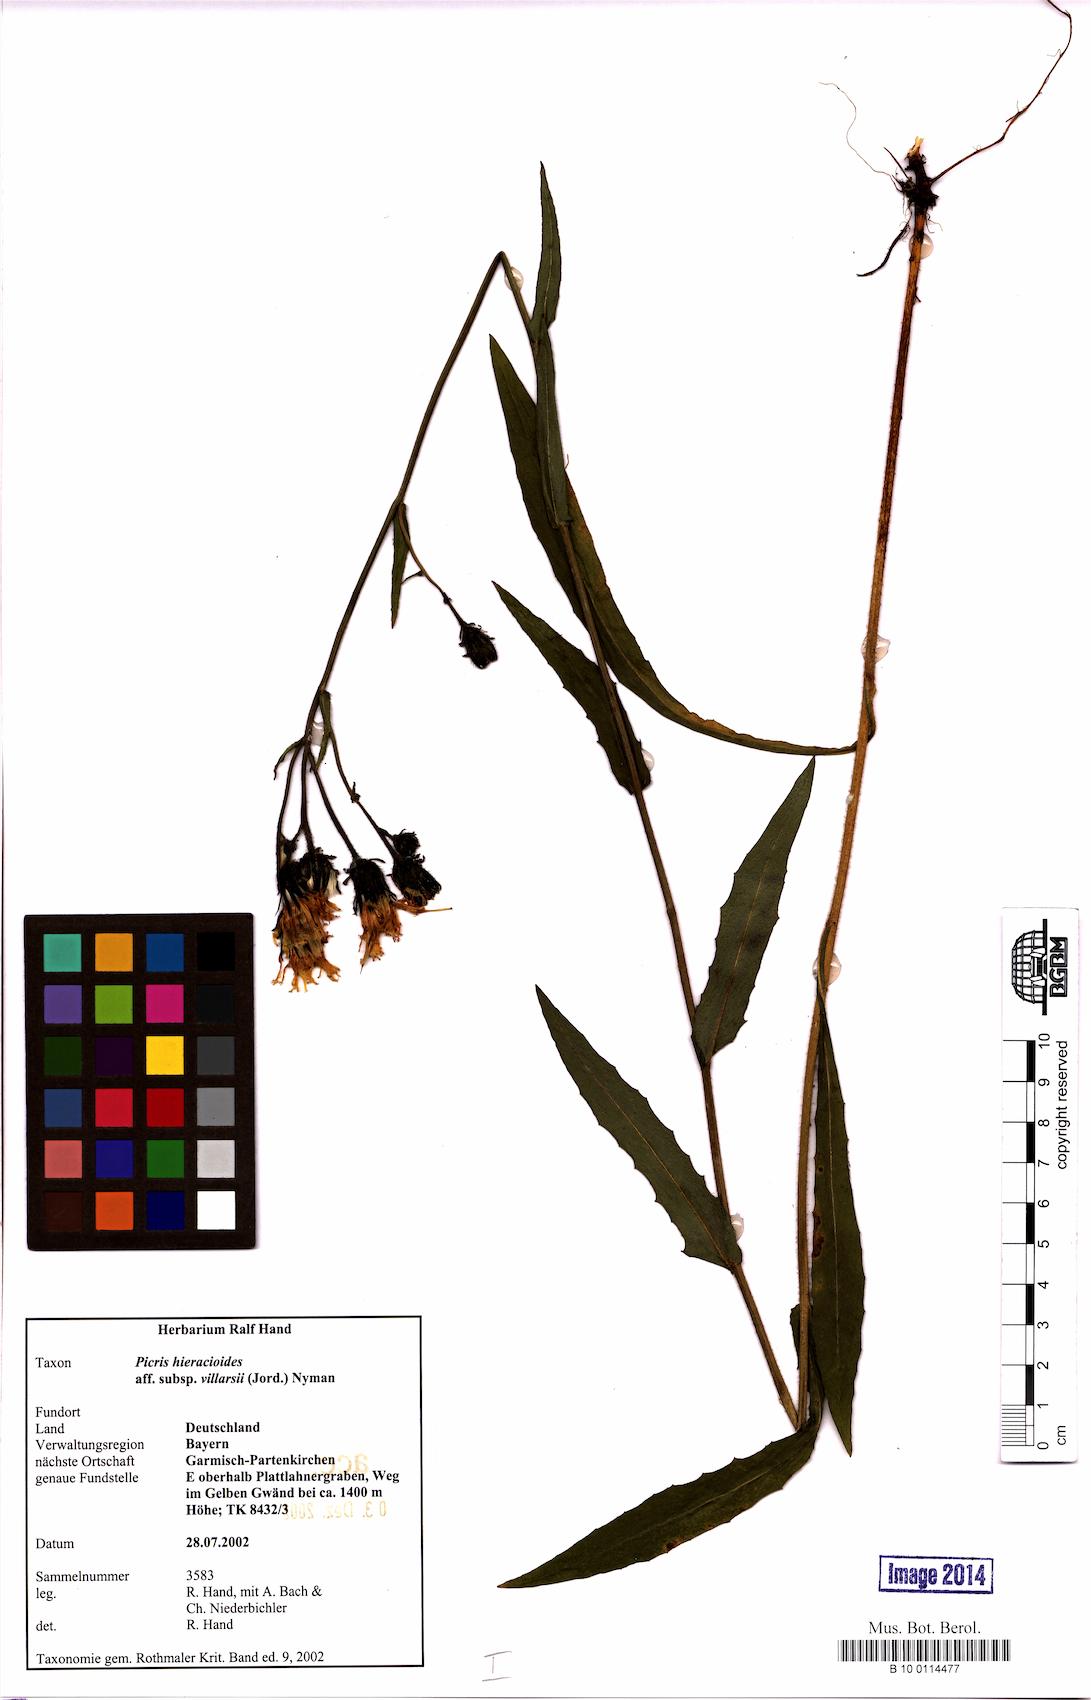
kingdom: Plantae
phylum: Tracheophyta
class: Magnoliopsida
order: Asterales
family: Asteraceae
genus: Picris
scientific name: Picris hieracioides
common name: Hawkweed oxtongue
